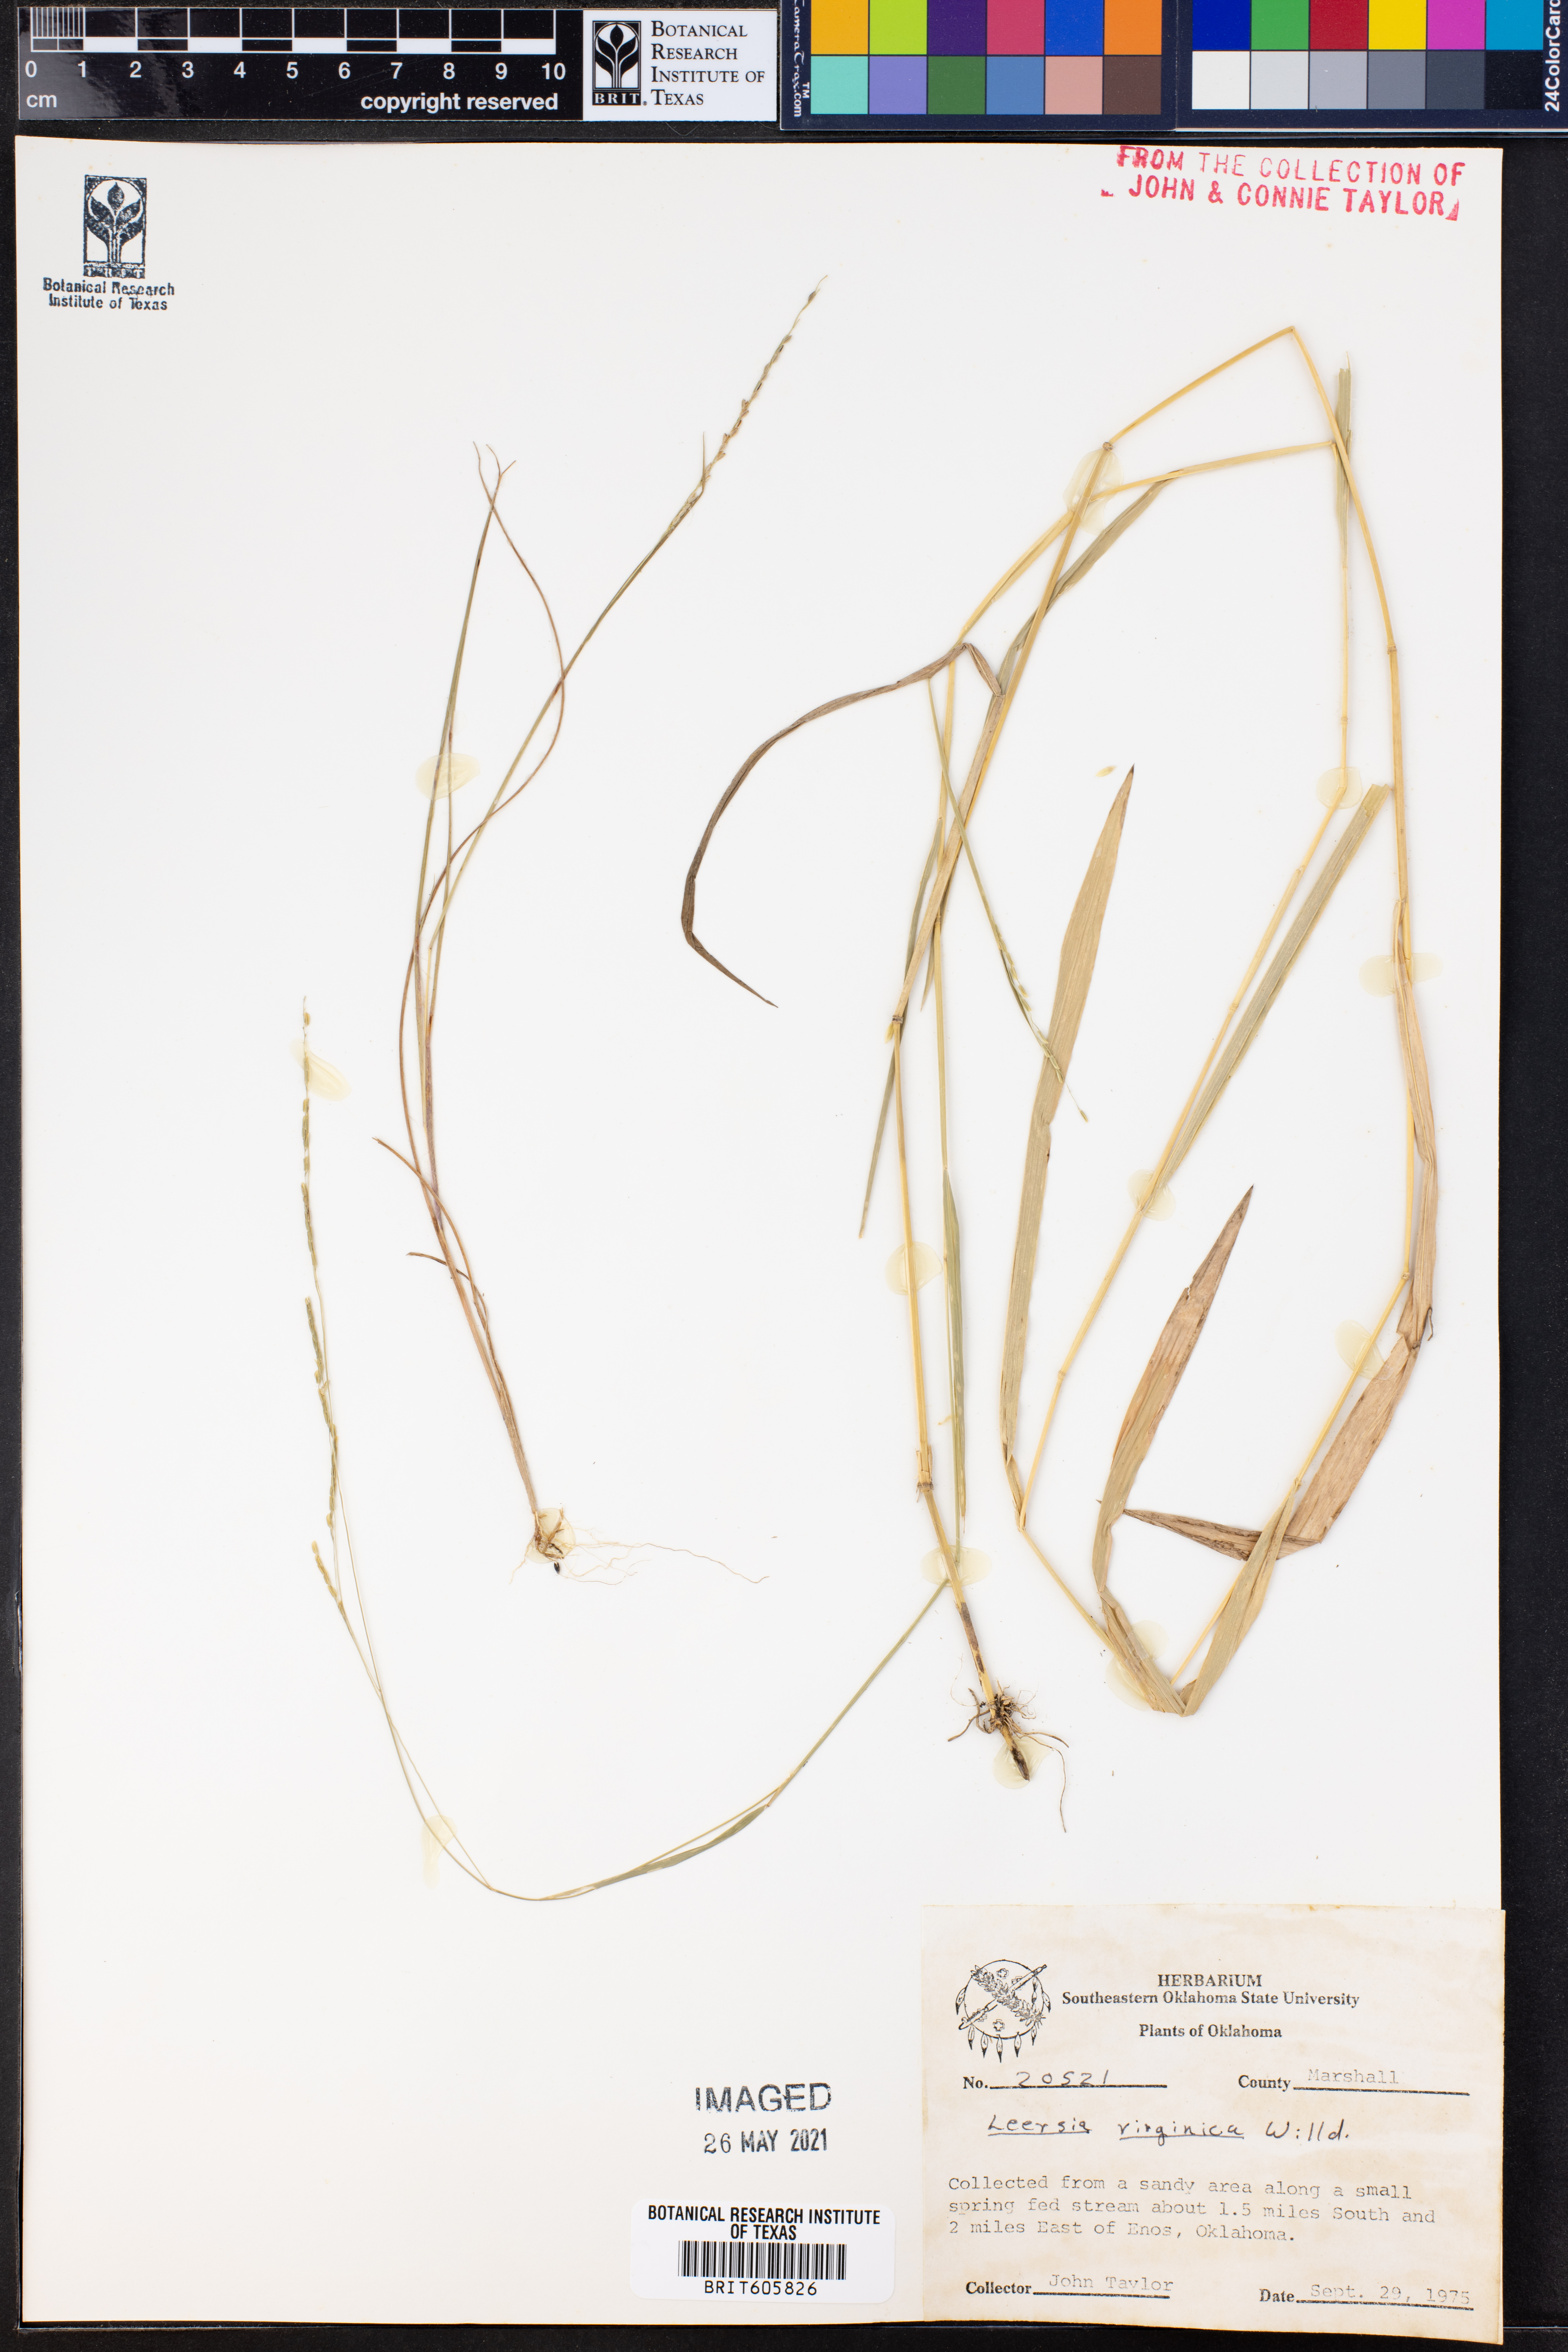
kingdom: Plantae
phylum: Tracheophyta
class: Liliopsida
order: Poales
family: Poaceae
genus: Leersia
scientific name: Leersia virginica
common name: White cutgrass
